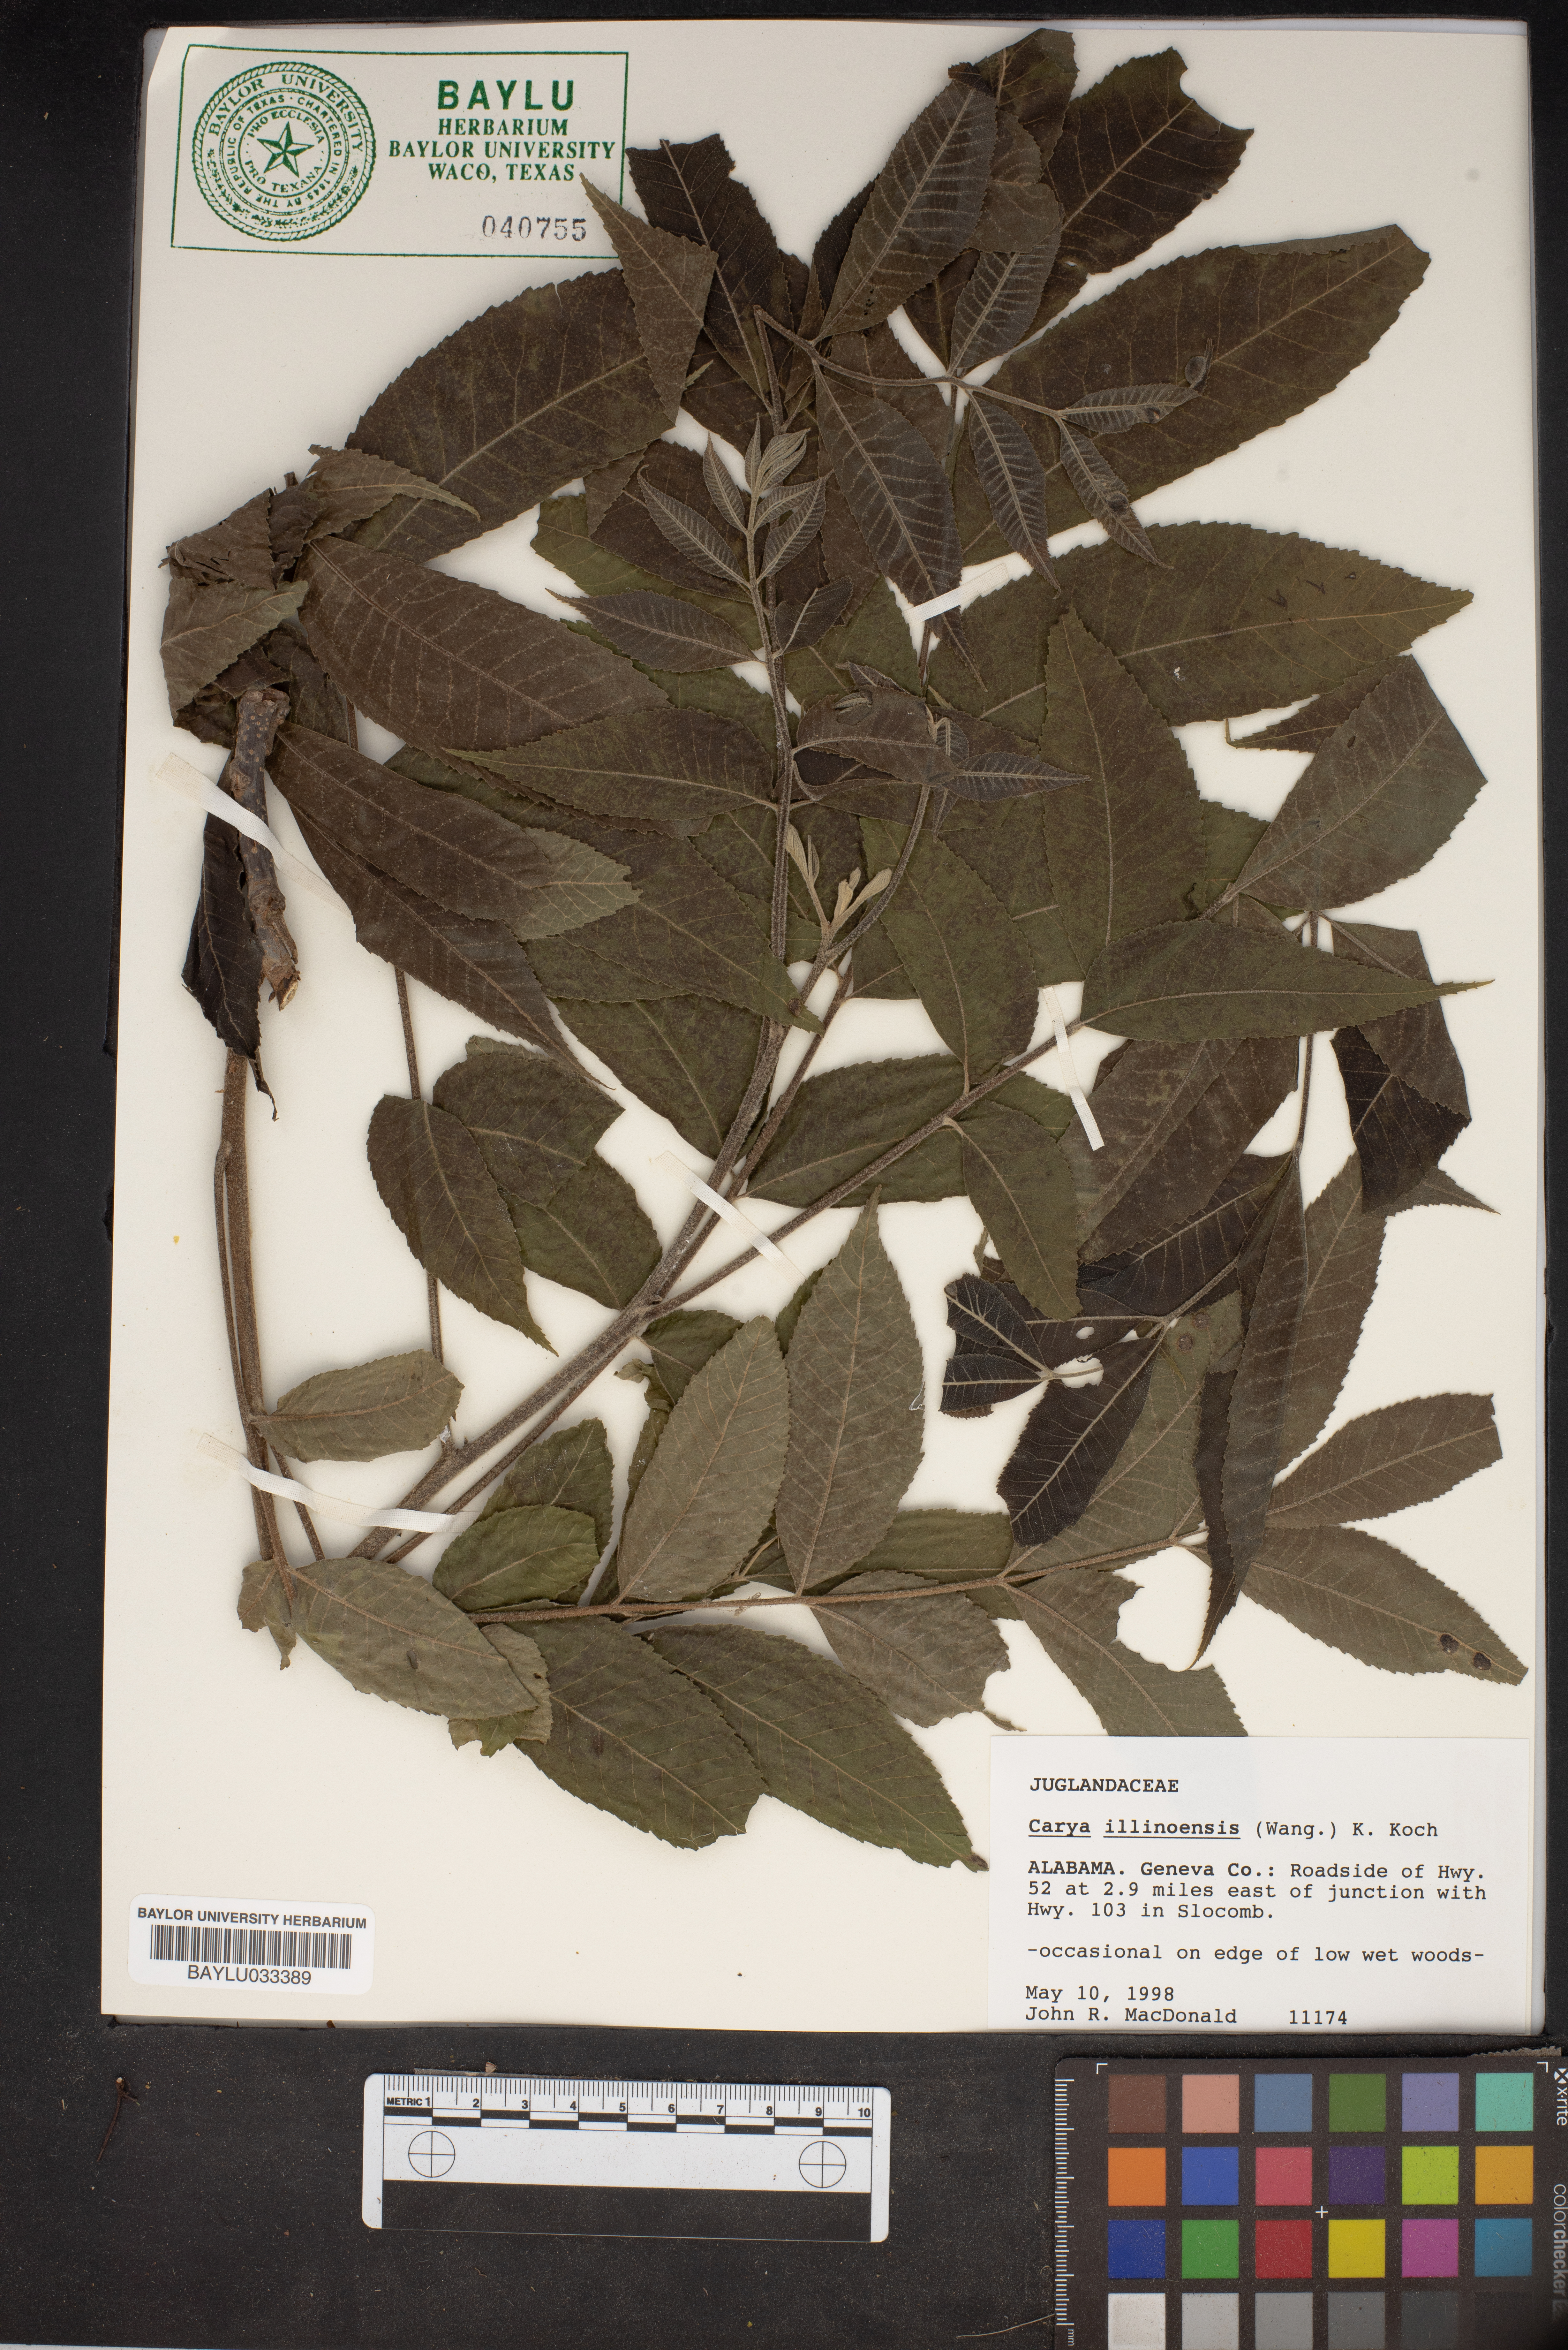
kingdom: Plantae
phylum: Tracheophyta
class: Magnoliopsida
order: Fagales
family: Juglandaceae
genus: Carya
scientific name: Carya illinoinensis
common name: Pecan
